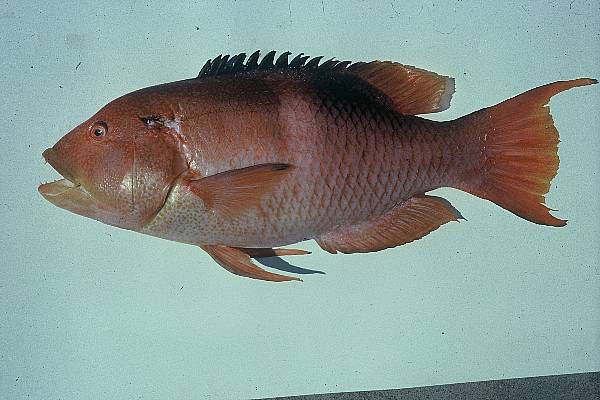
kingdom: Animalia
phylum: Chordata
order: Perciformes
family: Labridae
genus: Bodianus
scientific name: Bodianus perditio
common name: Goldspot pigfish
